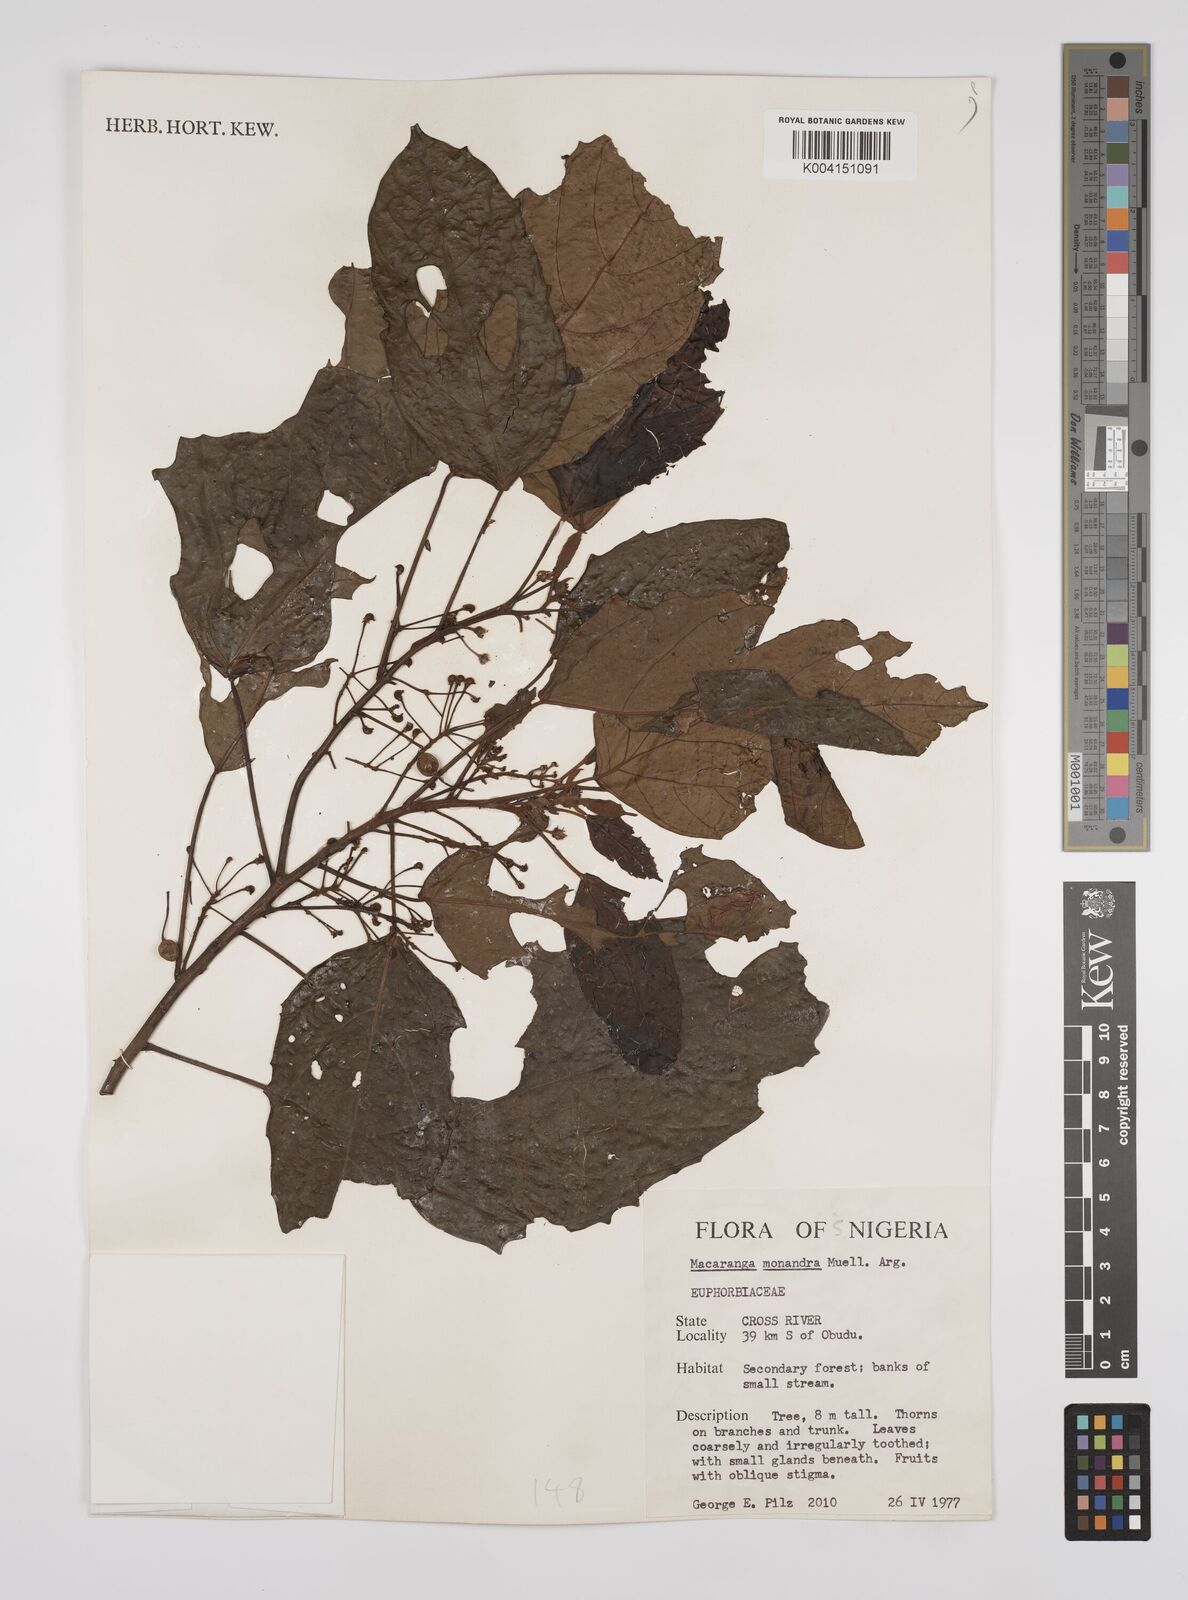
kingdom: Plantae
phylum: Tracheophyta
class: Magnoliopsida
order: Malpighiales
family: Euphorbiaceae
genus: Macaranga
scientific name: Macaranga monandra
